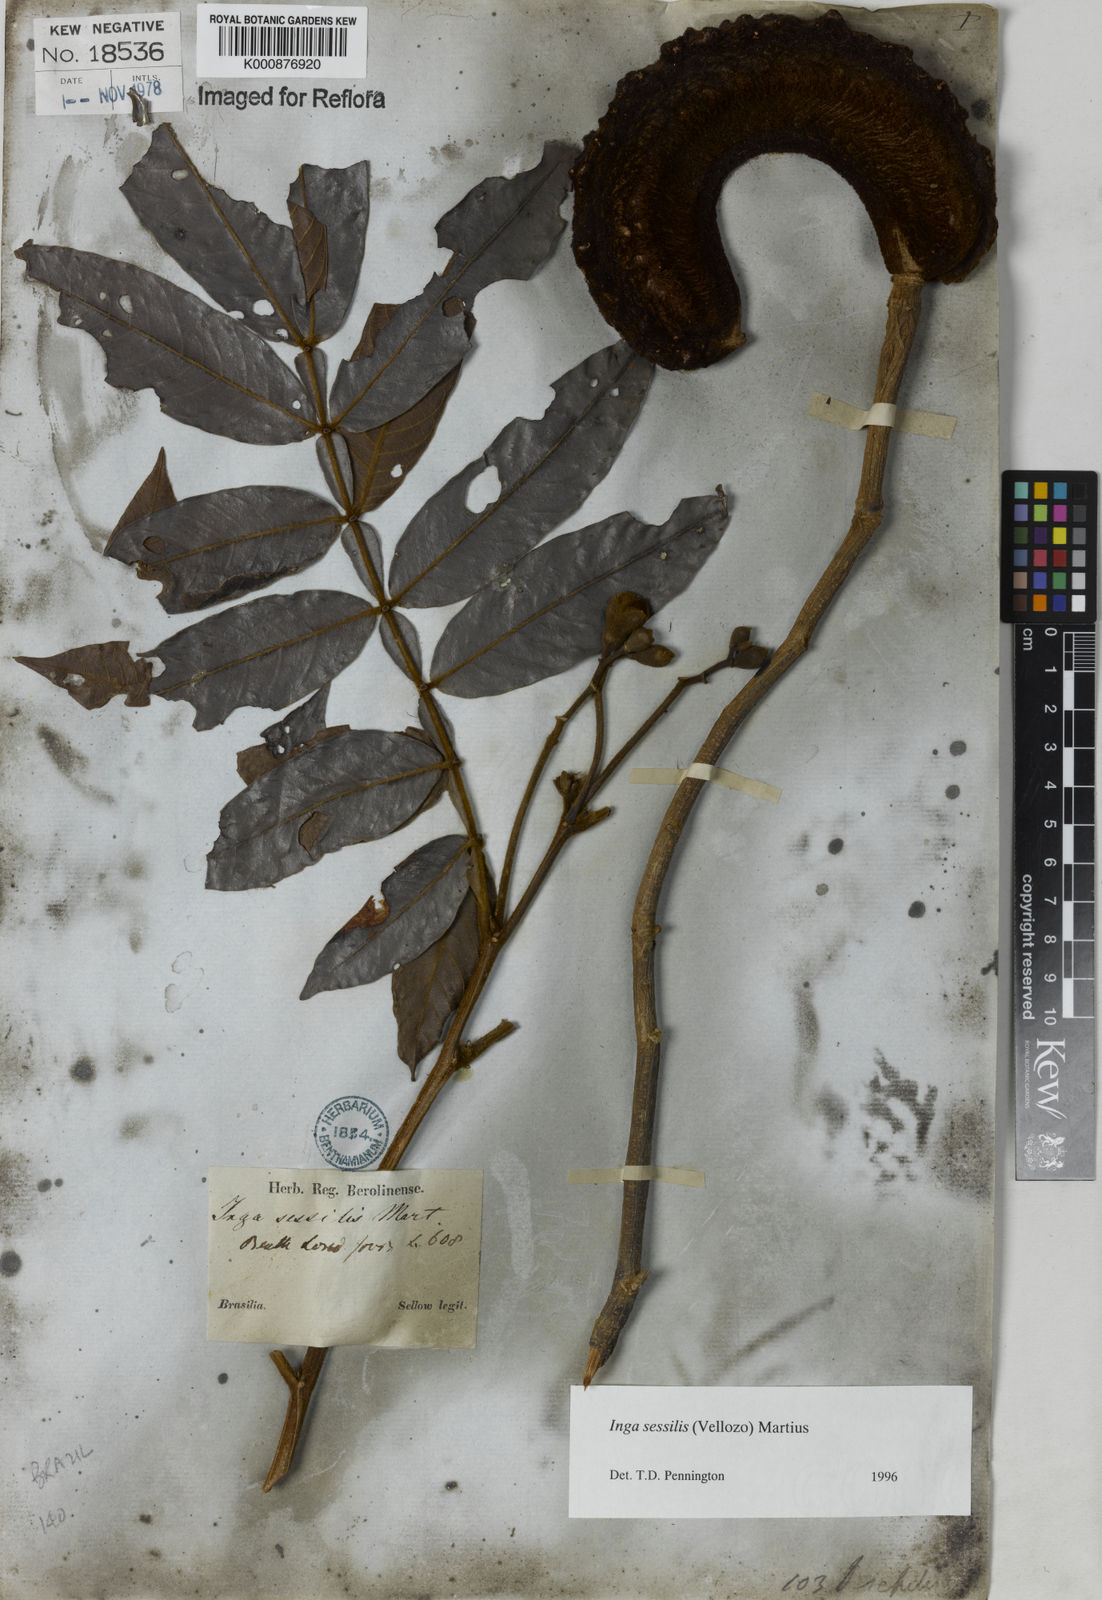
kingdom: Plantae
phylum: Tracheophyta
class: Magnoliopsida
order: Fabales
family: Fabaceae
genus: Inga
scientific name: Inga sessilis
